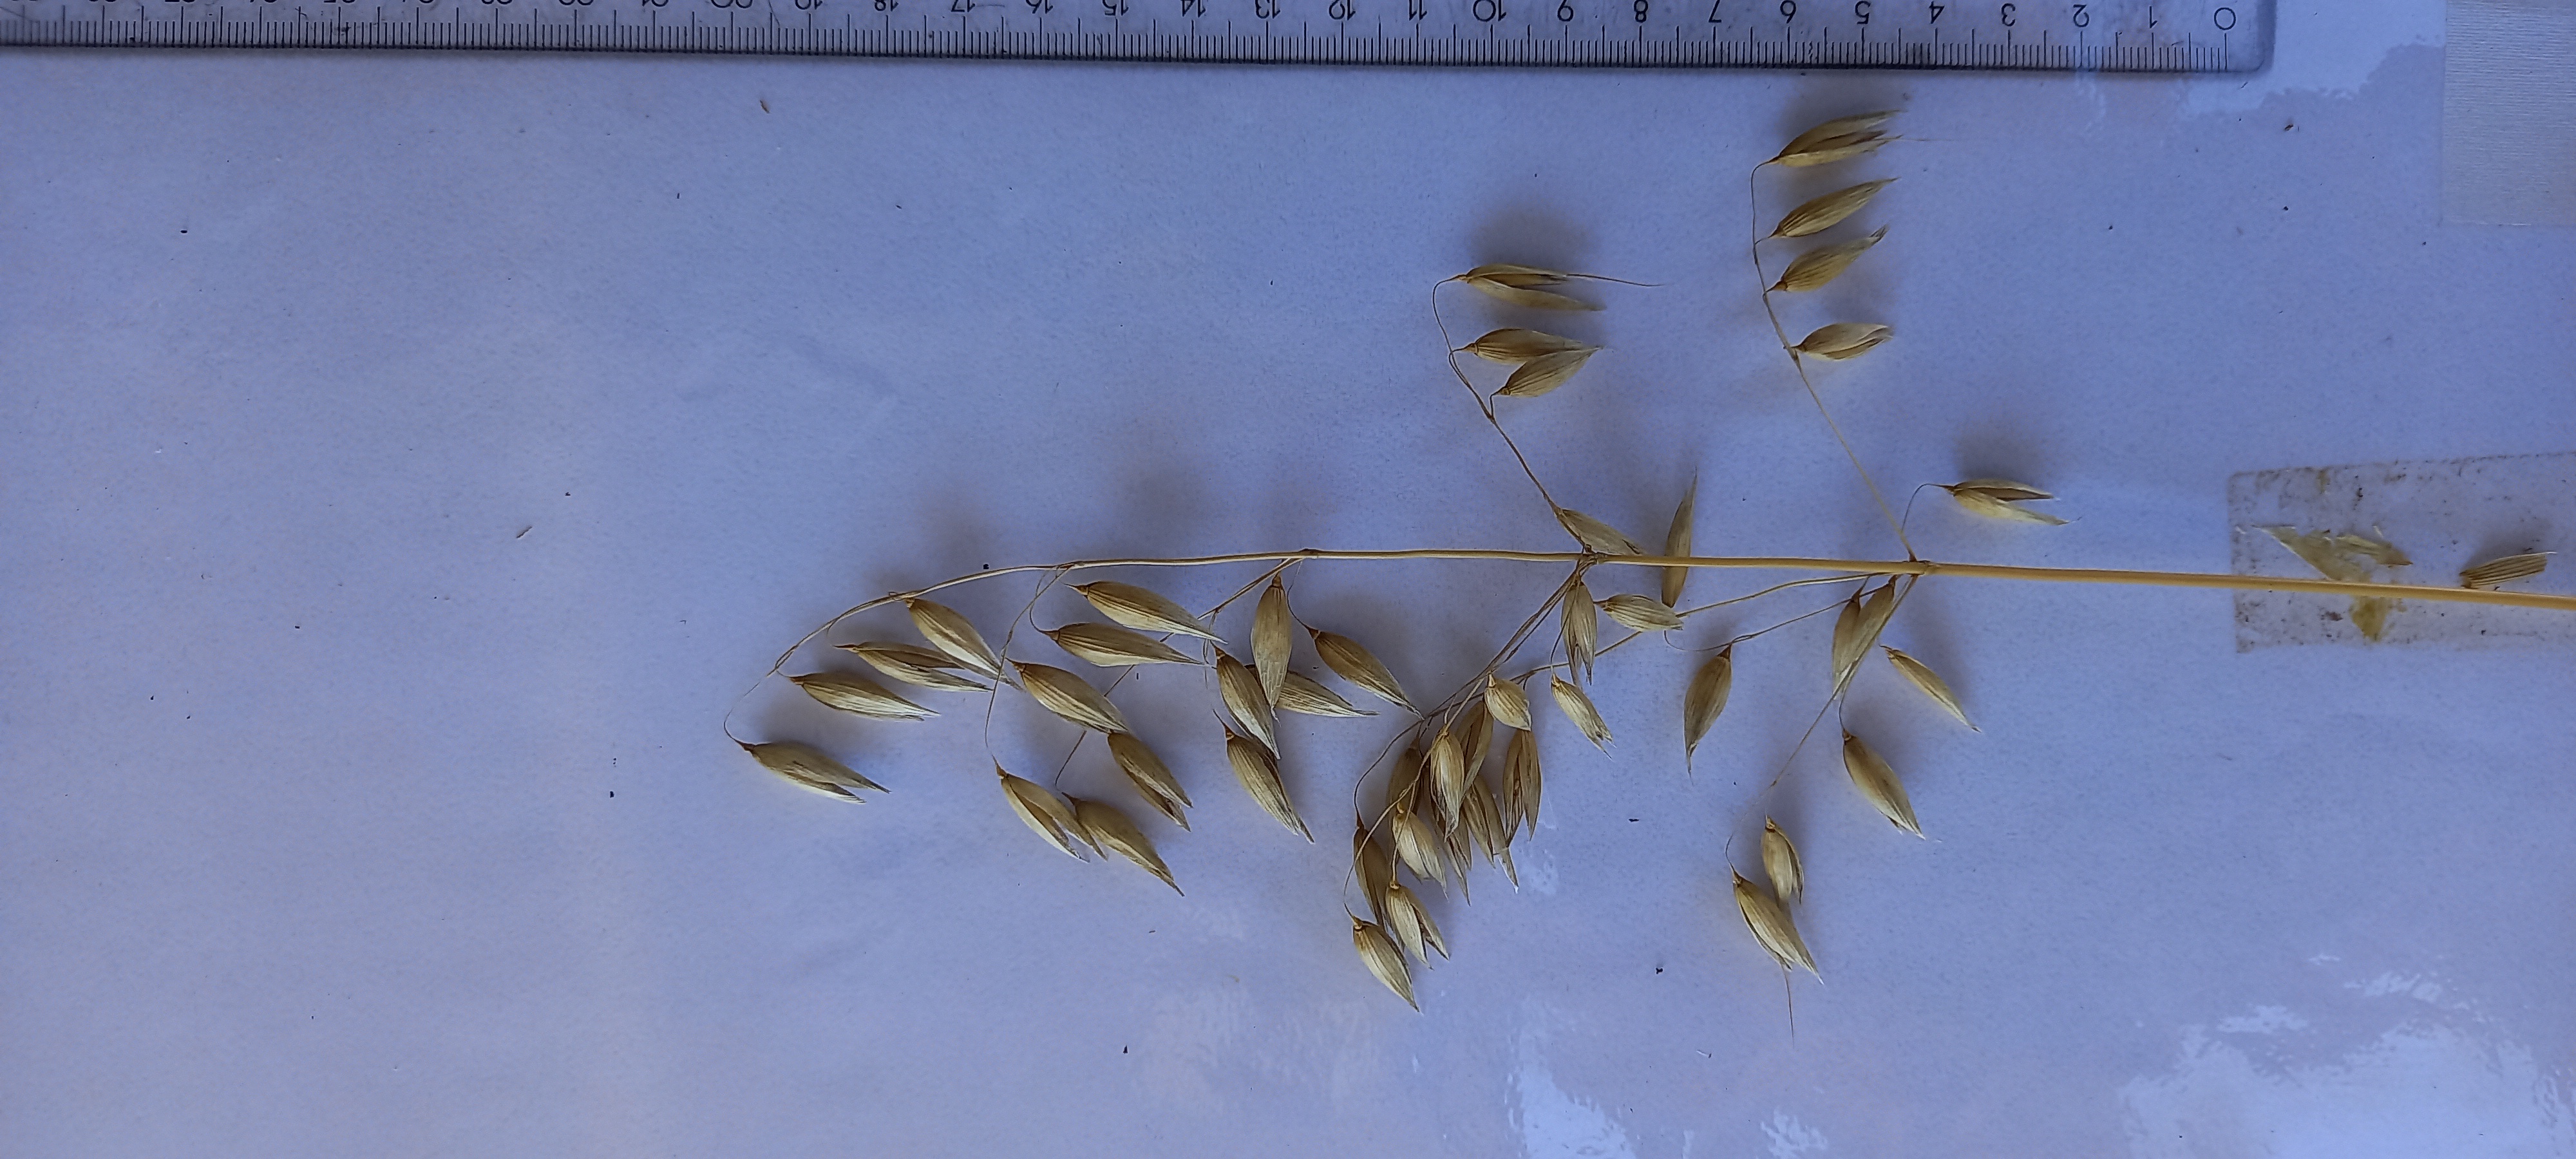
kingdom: Plantae
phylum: Tracheophyta
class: Liliopsida
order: Poales
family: Poaceae
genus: Avena
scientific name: Avena sativa
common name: Oat
